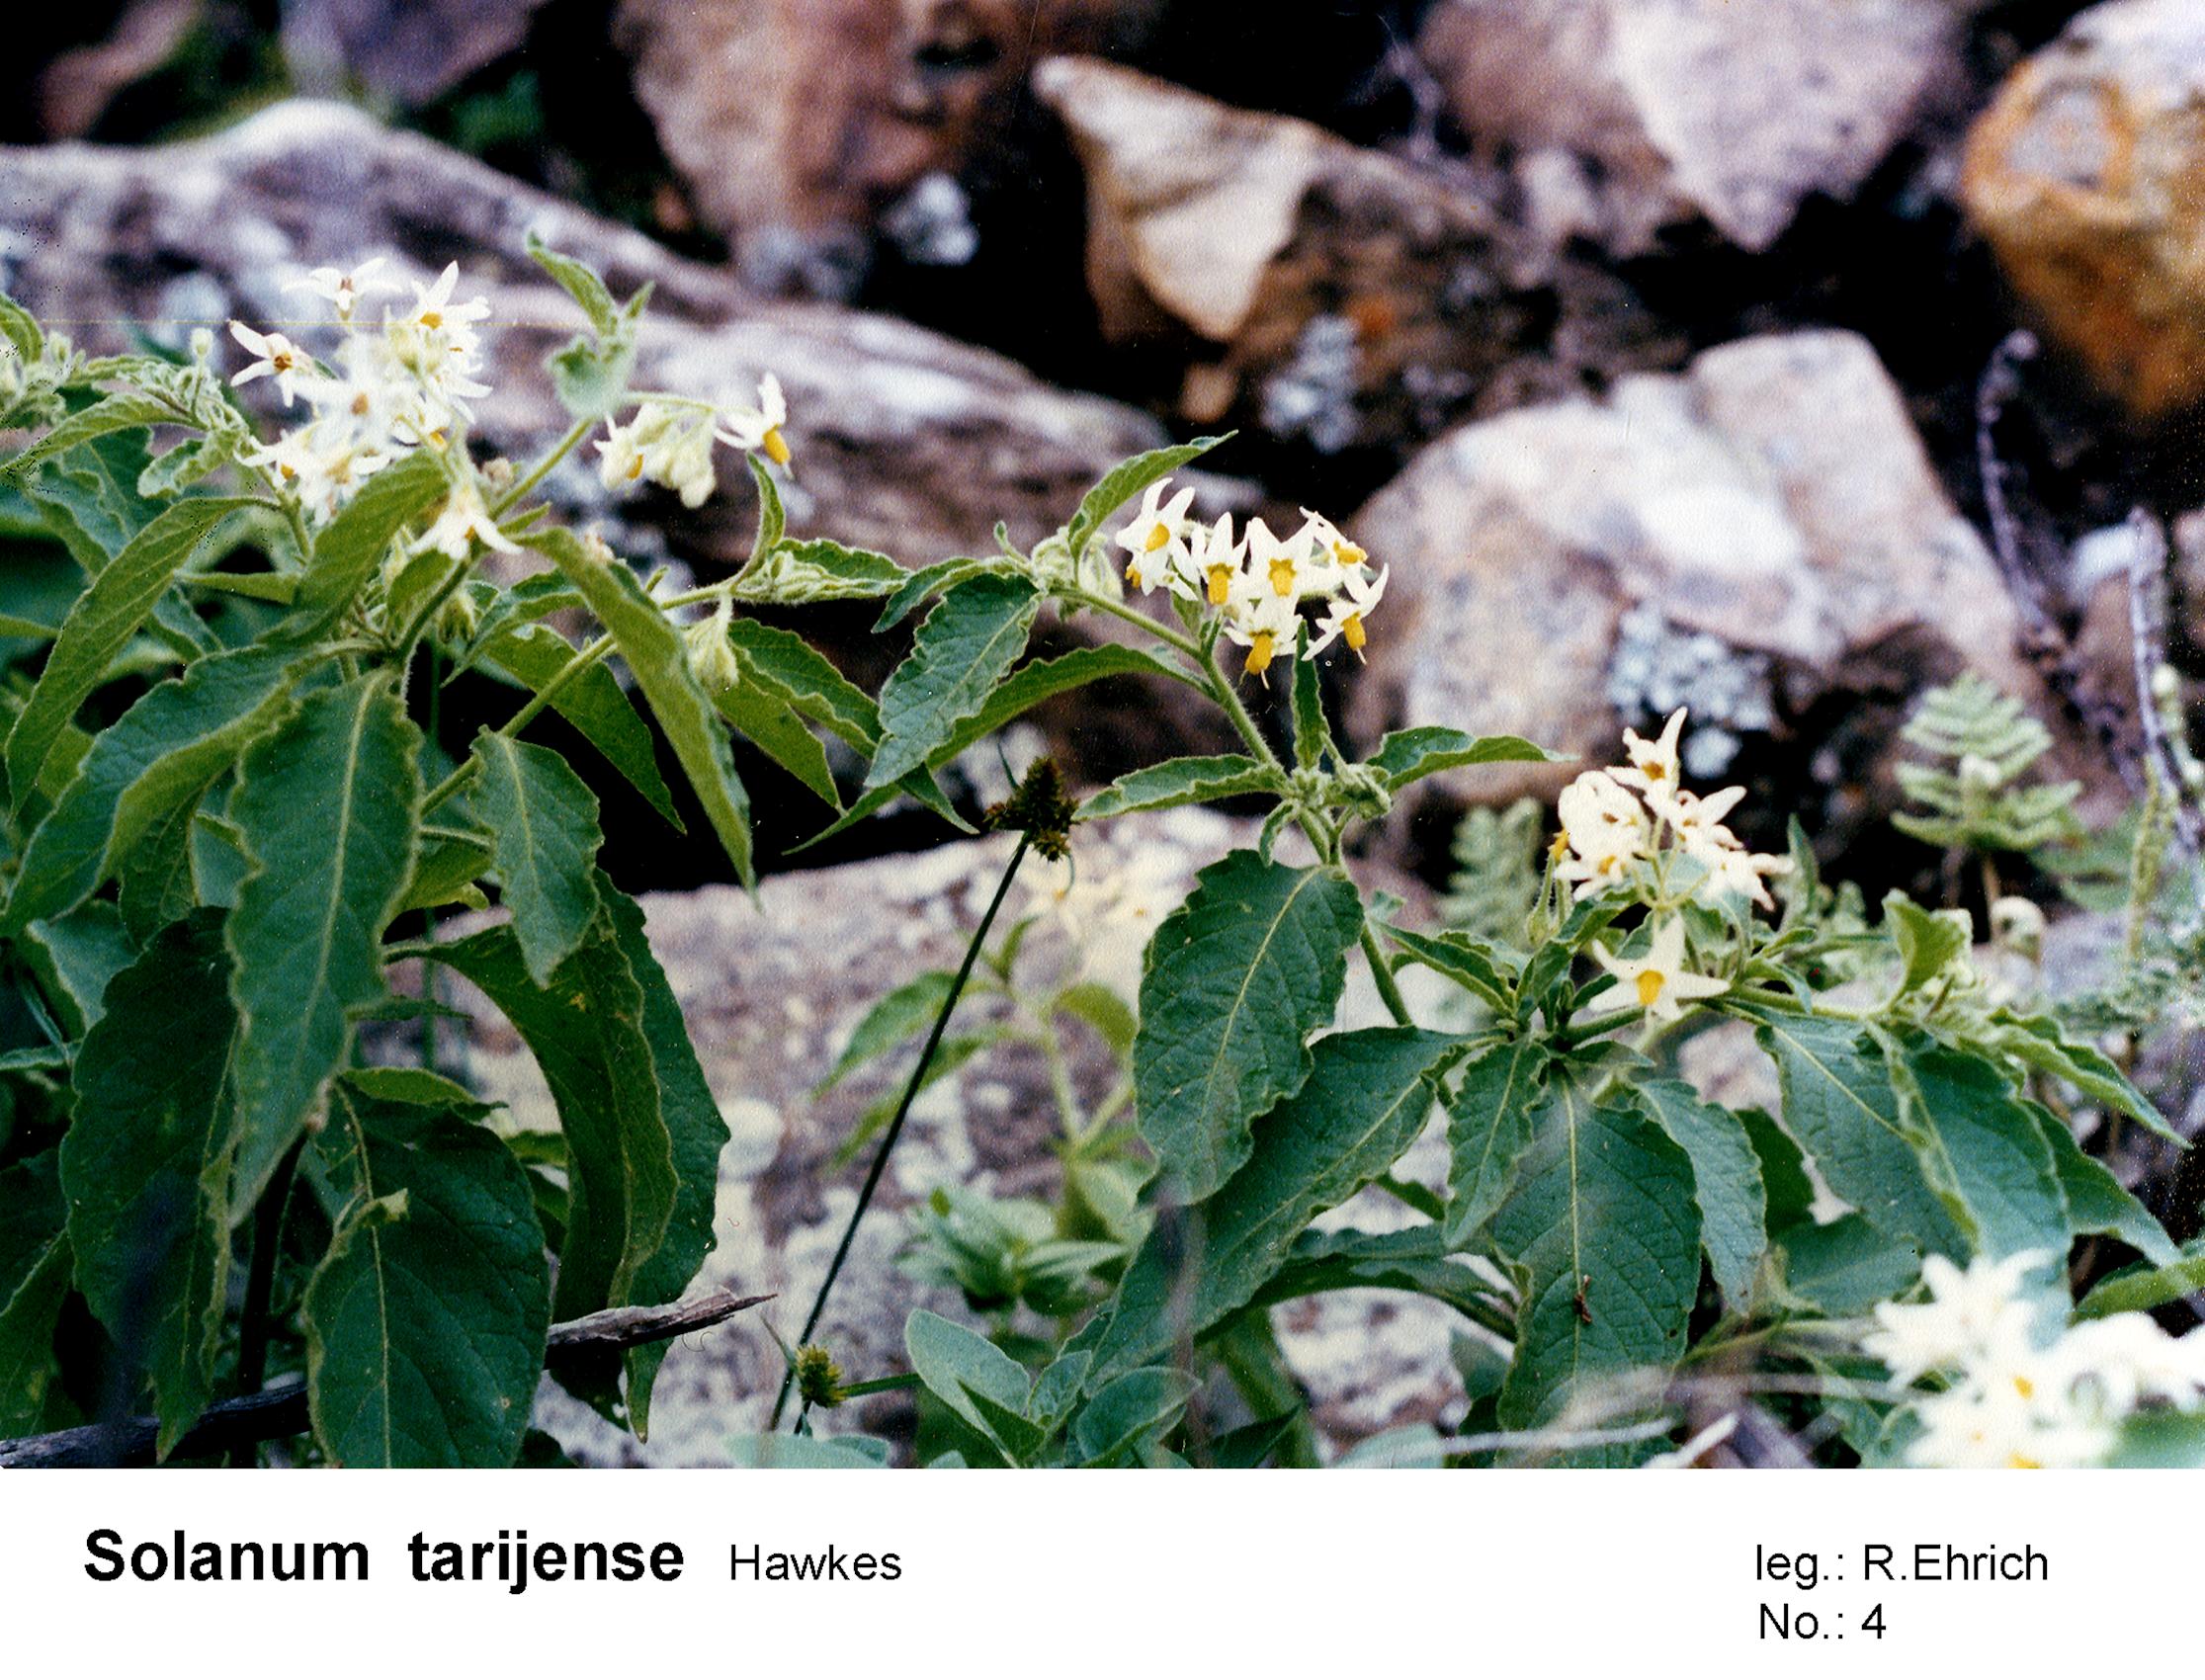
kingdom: Plantae
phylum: Tracheophyta
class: Magnoliopsida
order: Solanales
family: Solanaceae
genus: Solanum
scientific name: Solanum tarijense
